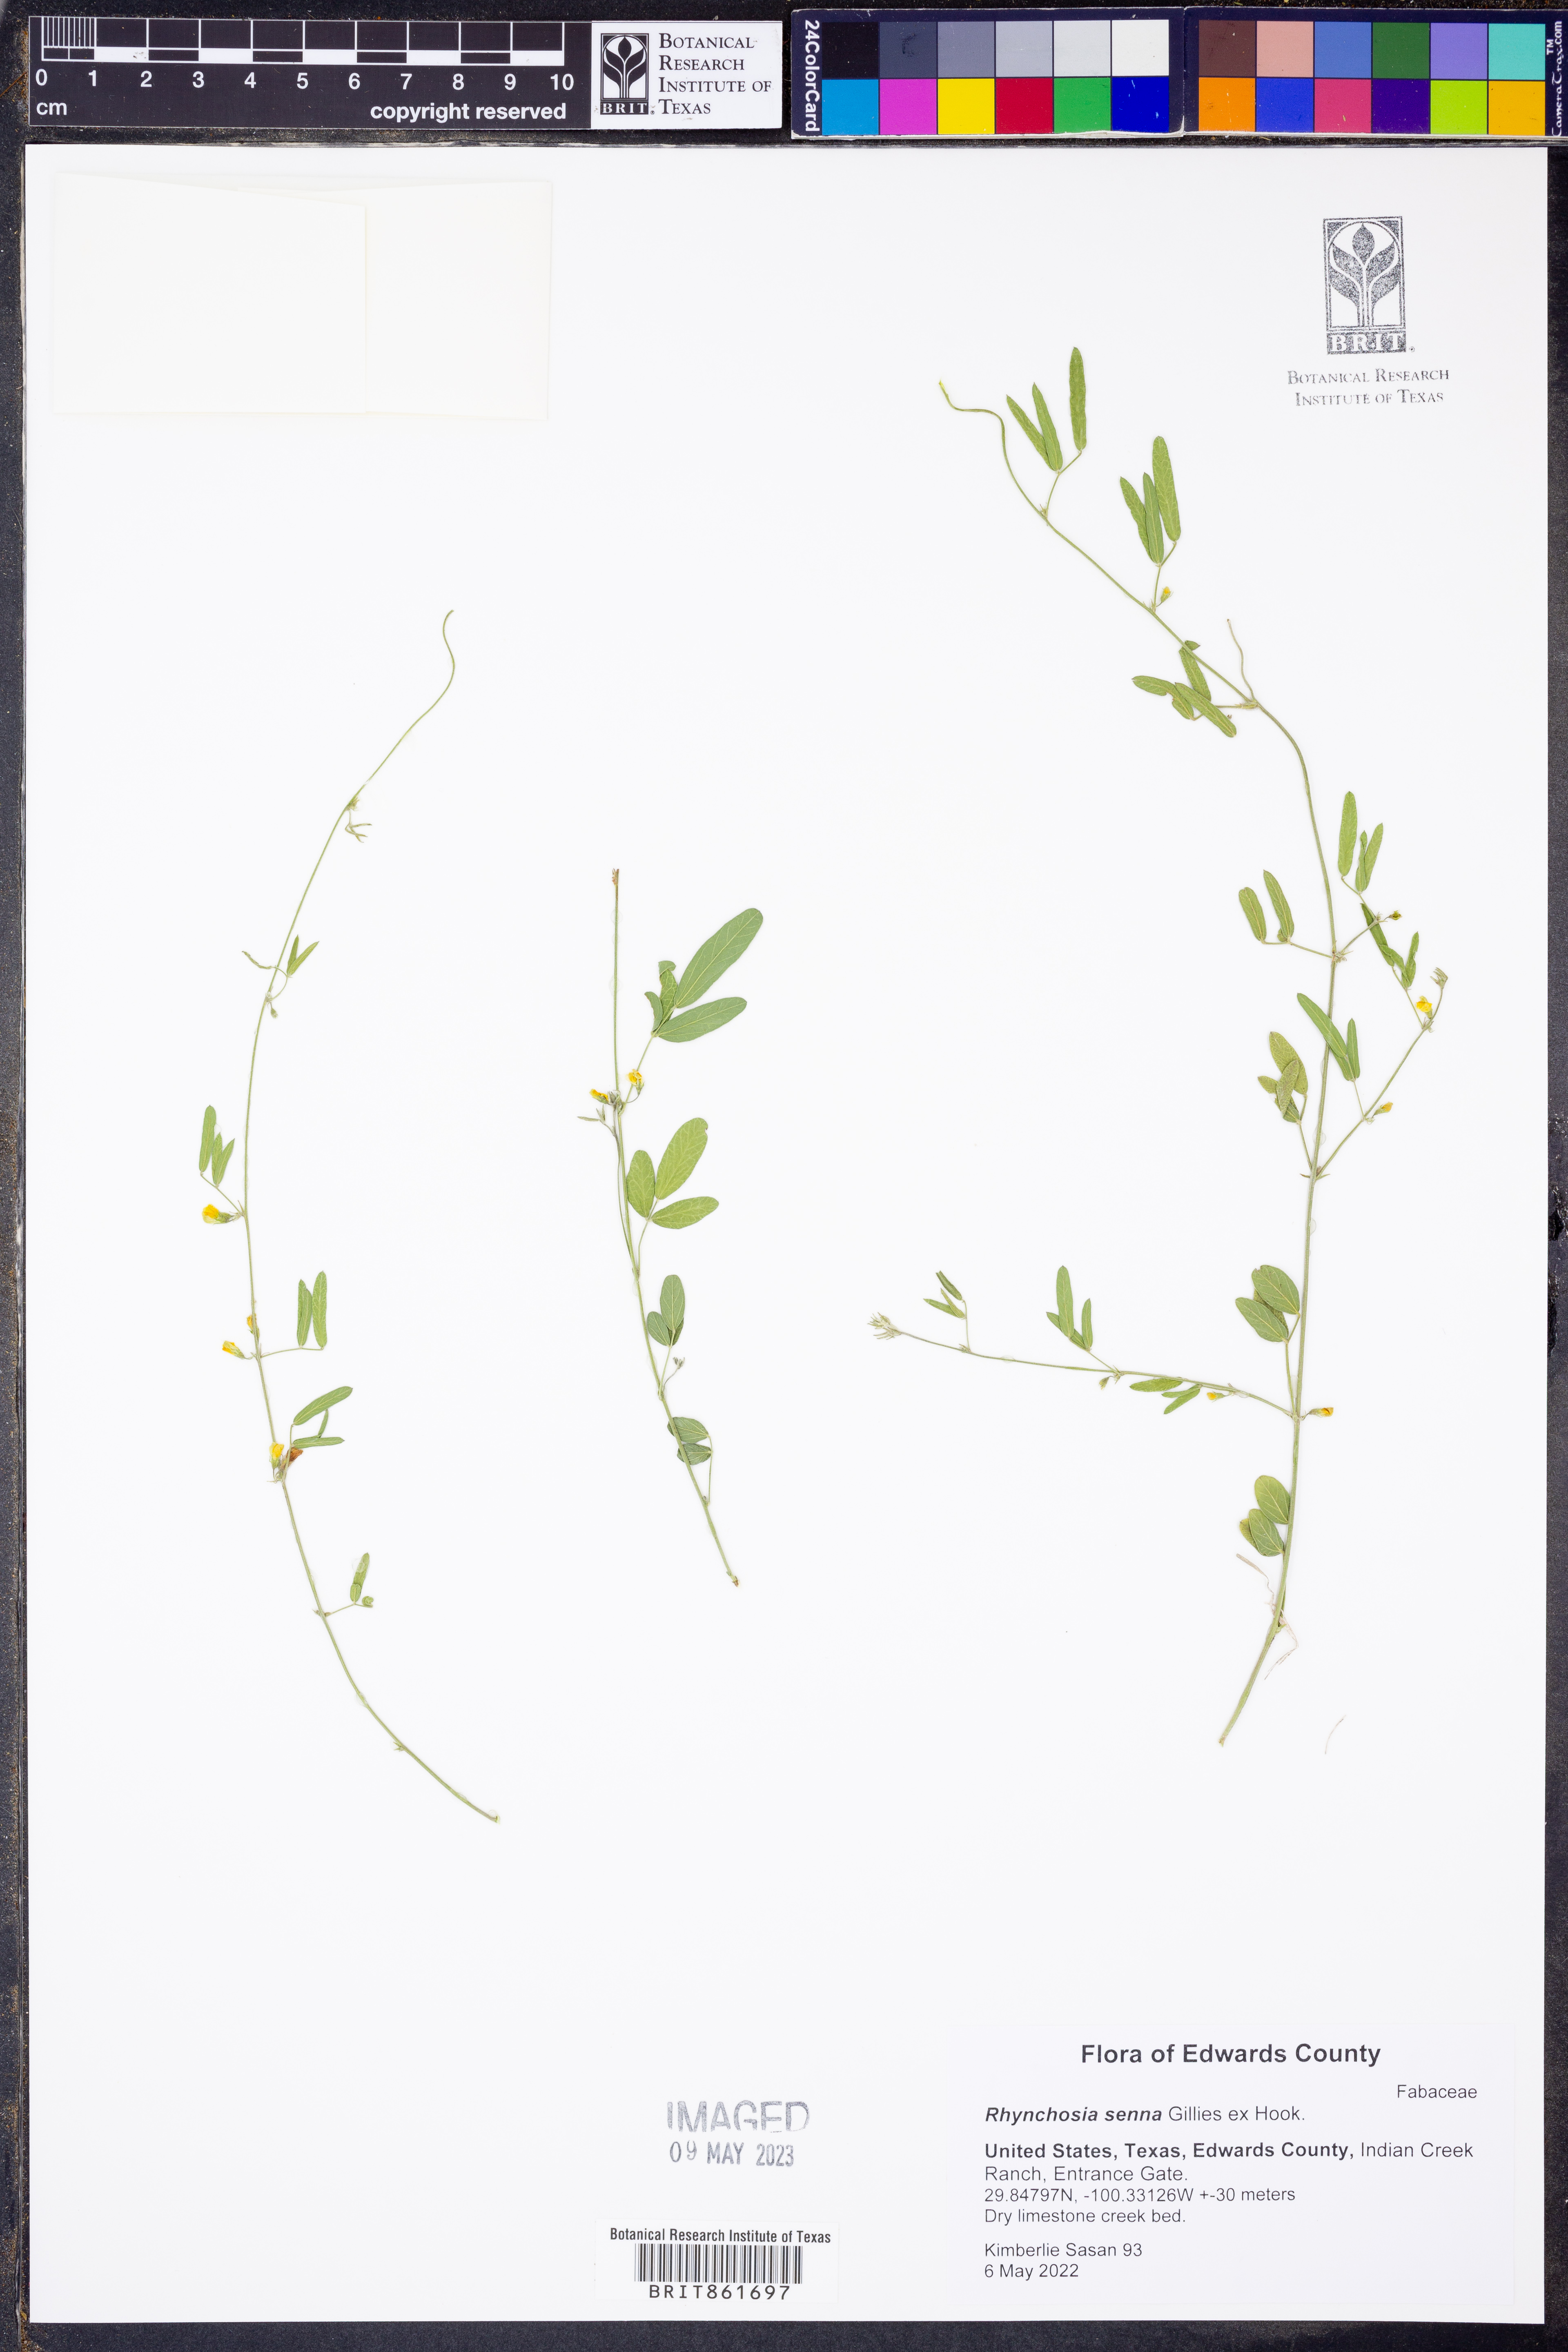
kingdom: Plantae
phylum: Tracheophyta
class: Magnoliopsida
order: Fabales
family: Fabaceae
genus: Rhynchosia
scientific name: Rhynchosia senna
